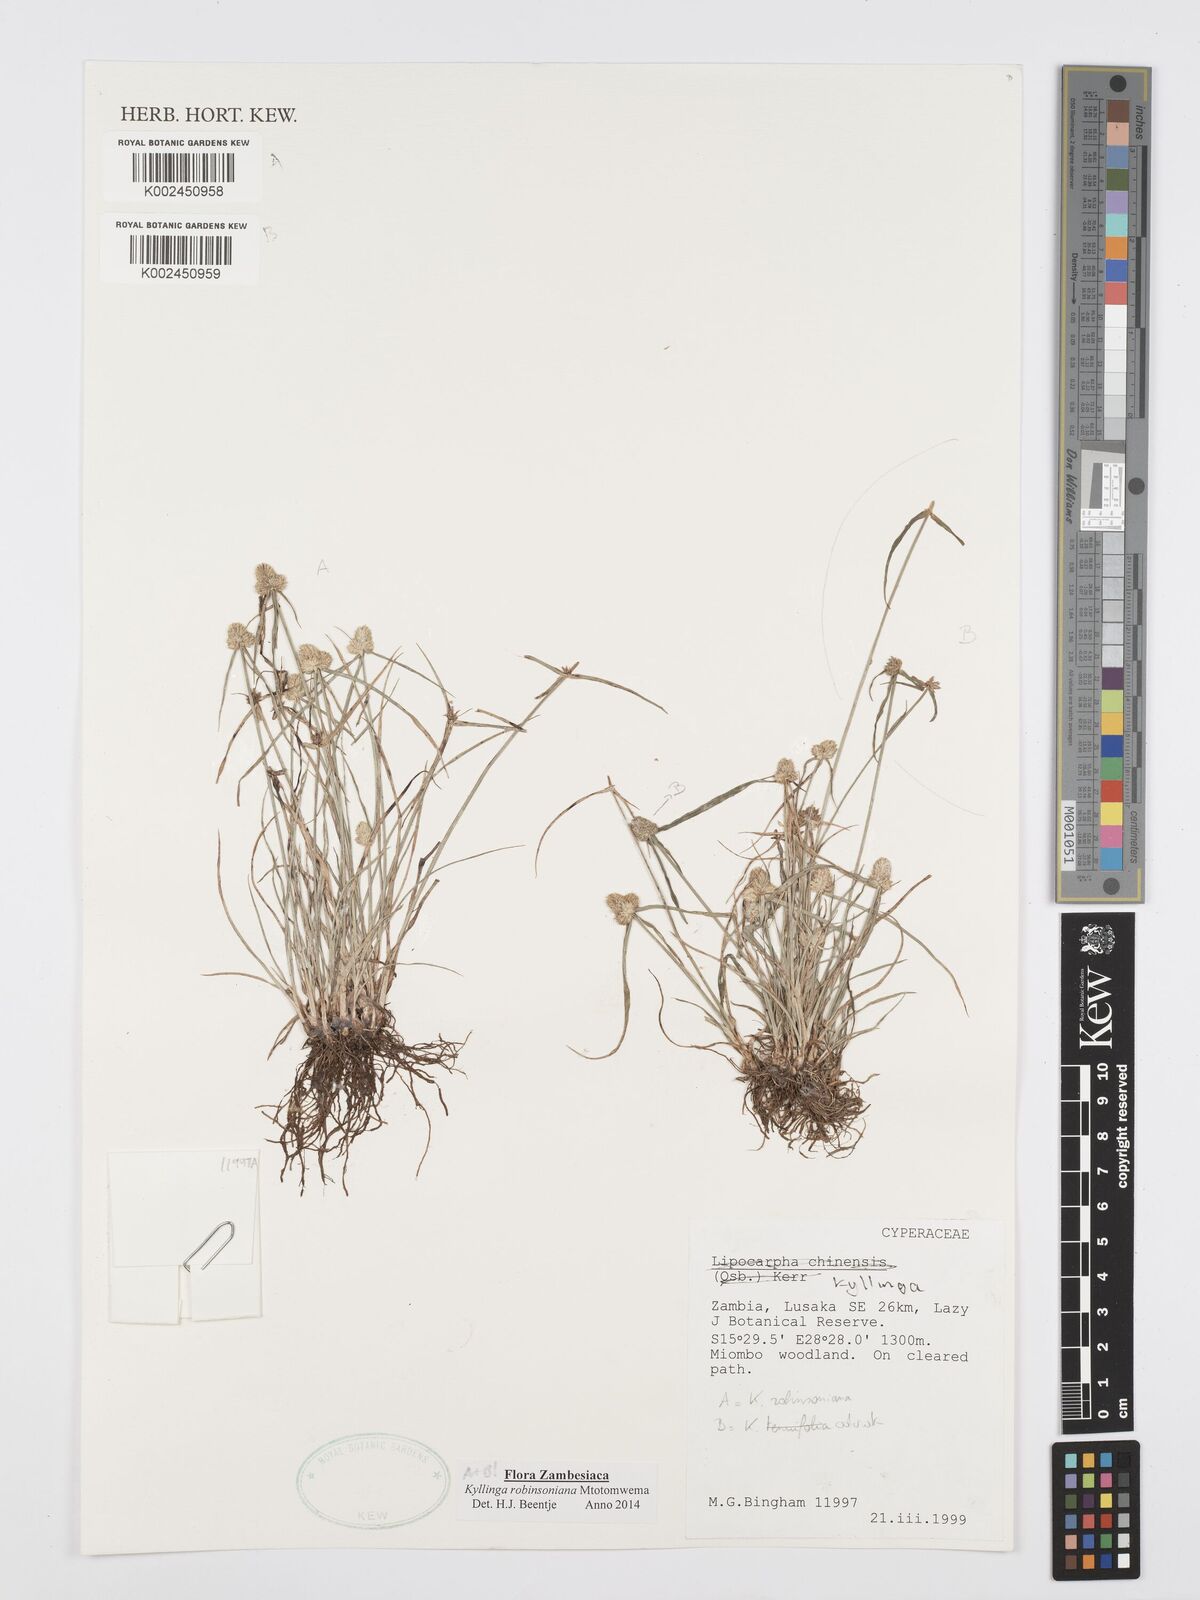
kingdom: Plantae
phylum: Tracheophyta
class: Liliopsida
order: Poales
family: Cyperaceae
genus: Cyperus
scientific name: Cyperus robinsonianus
